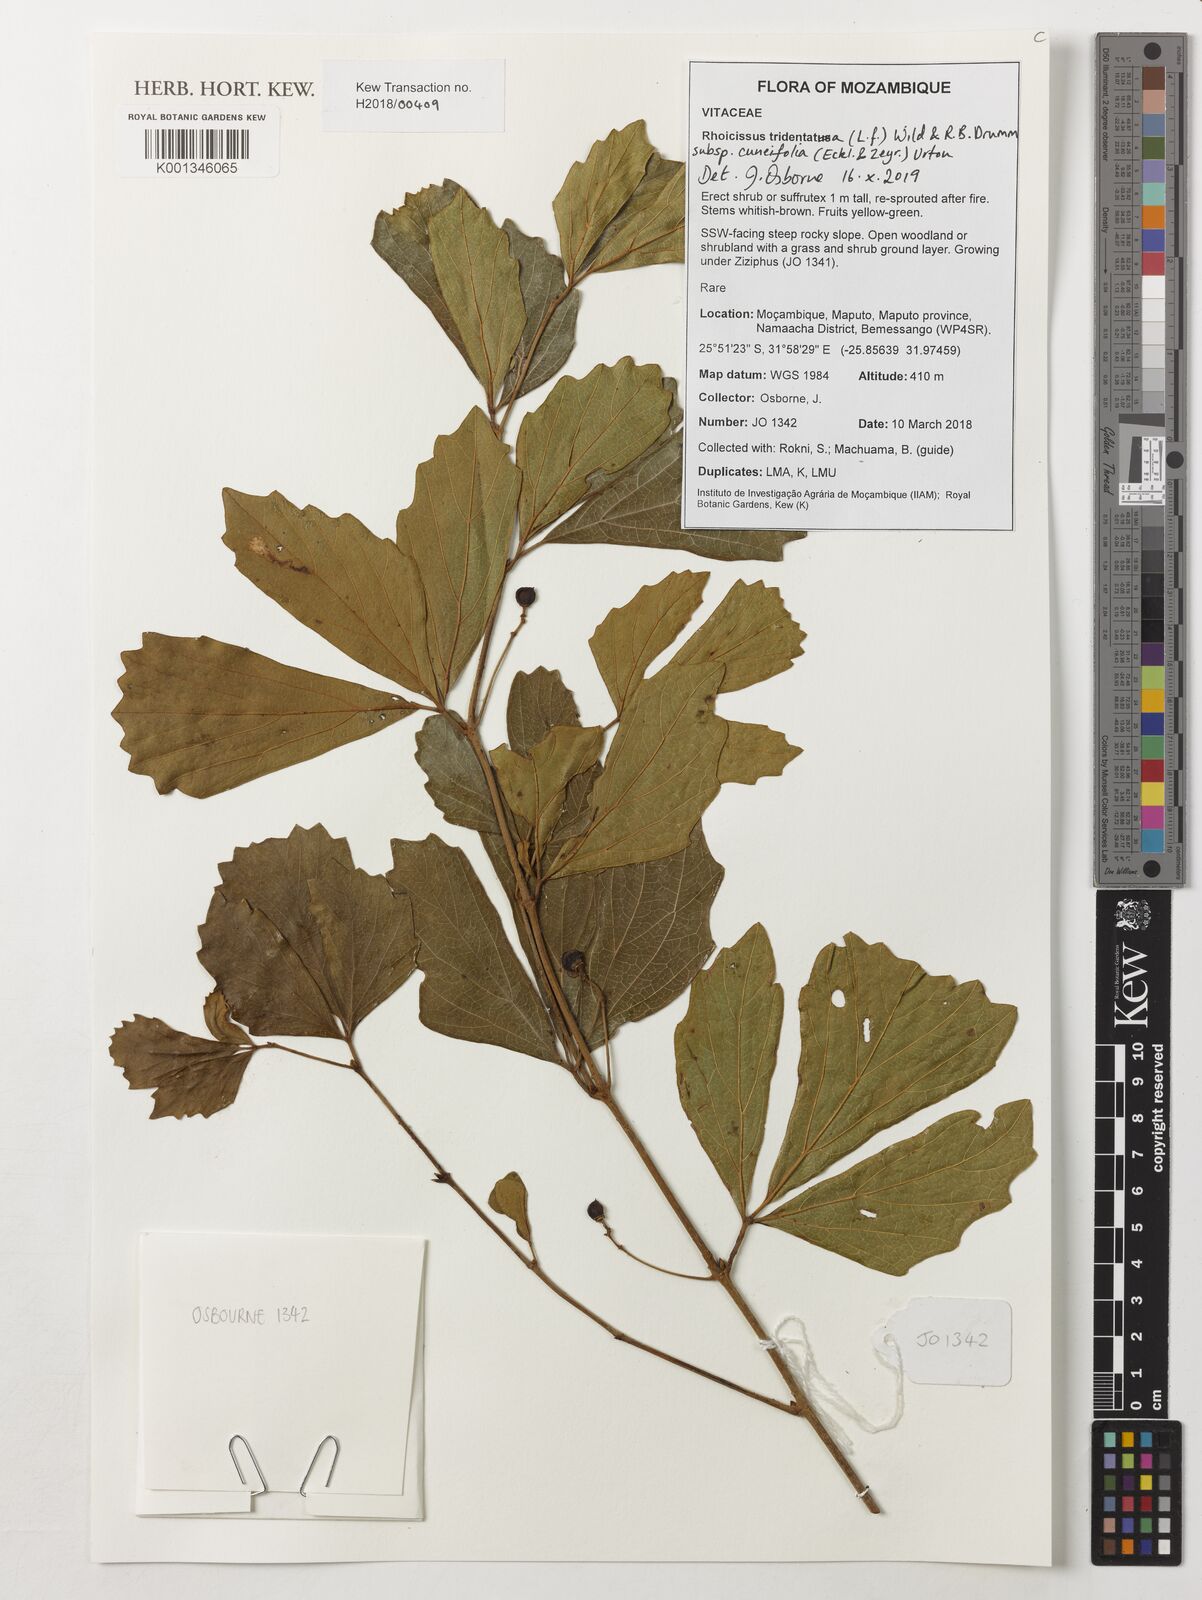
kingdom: Plantae
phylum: Tracheophyta
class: Magnoliopsida
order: Vitales
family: Vitaceae
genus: Rhoicissus
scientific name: Rhoicissus tridentata
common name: Common forest grape
